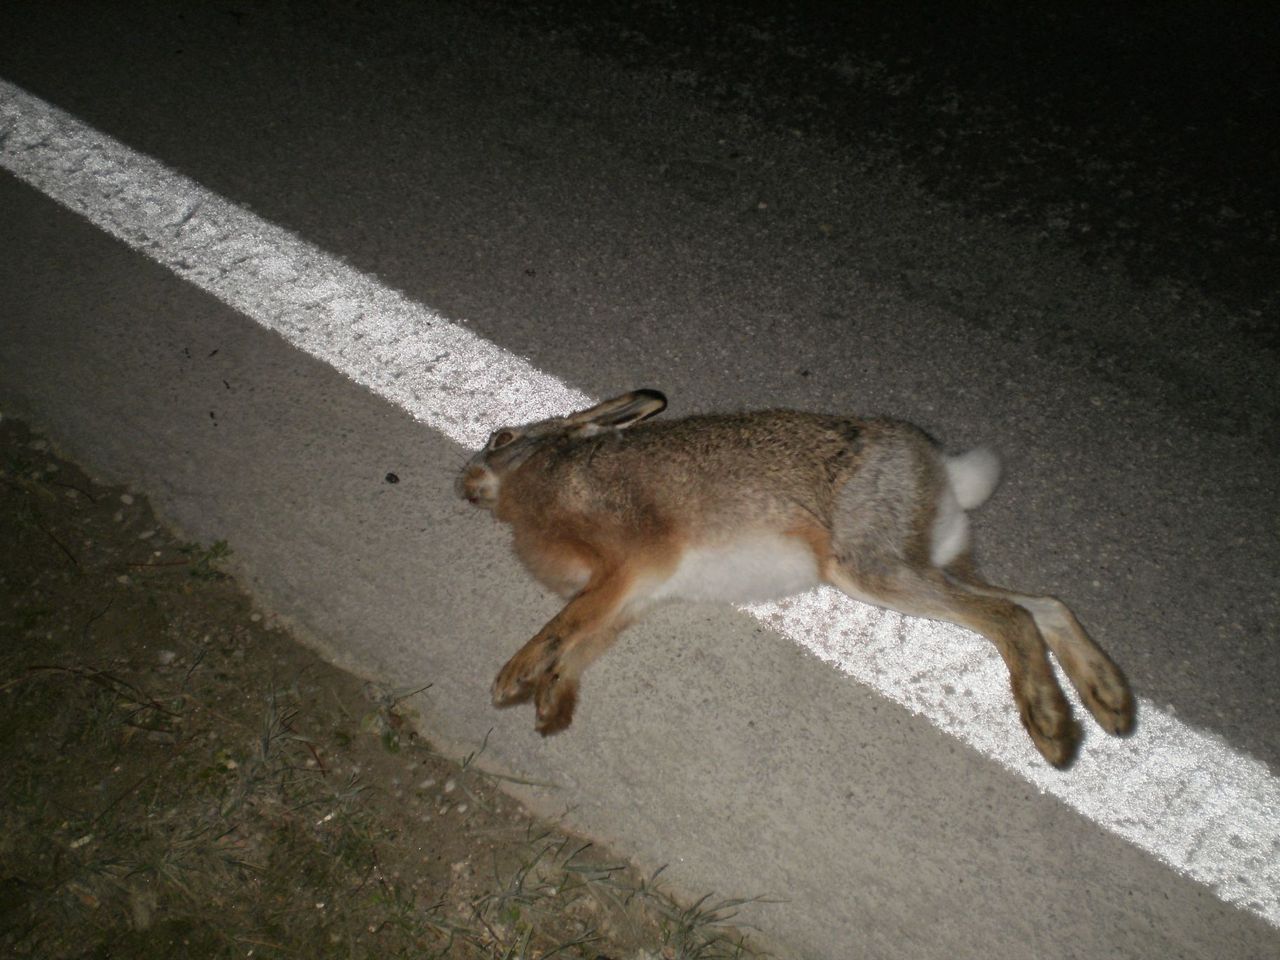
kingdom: Animalia
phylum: Chordata
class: Mammalia
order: Lagomorpha
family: Leporidae
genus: Lepus
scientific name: Lepus europaeus
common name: European hare
